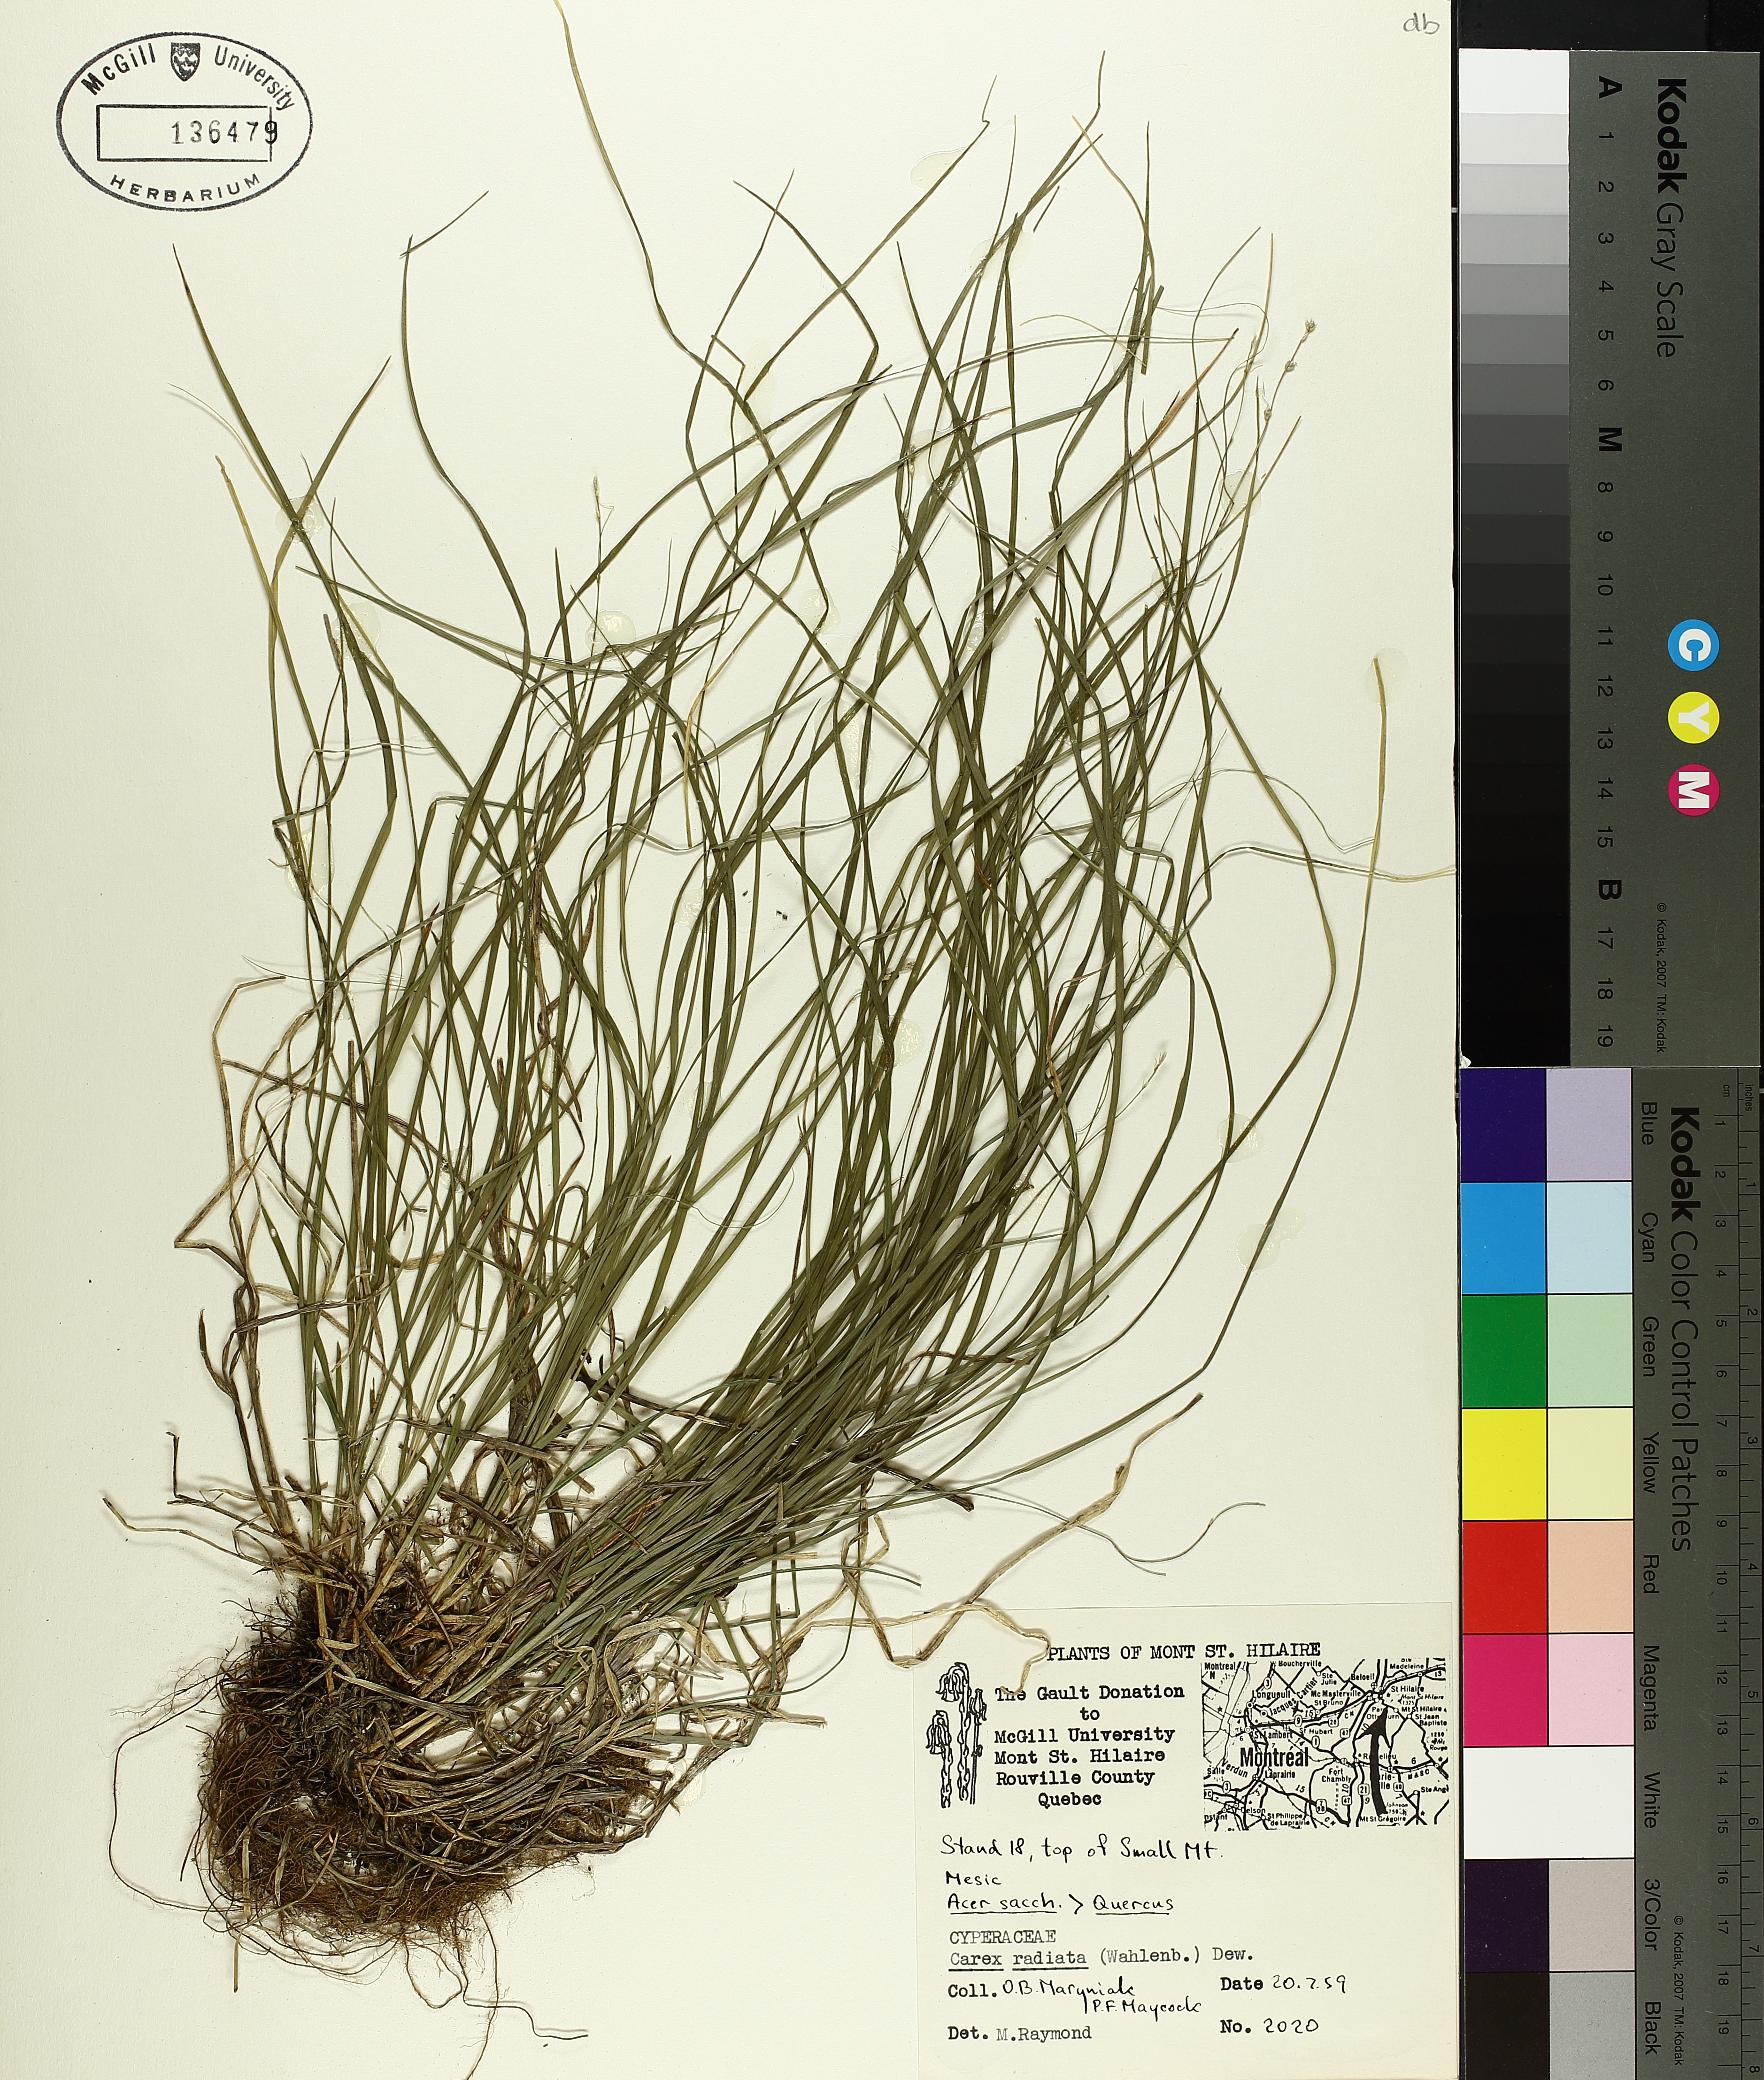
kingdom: Plantae
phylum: Tracheophyta
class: Liliopsida
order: Poales
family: Cyperaceae
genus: Carex
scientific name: Carex radiata
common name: Eastern star sedge
